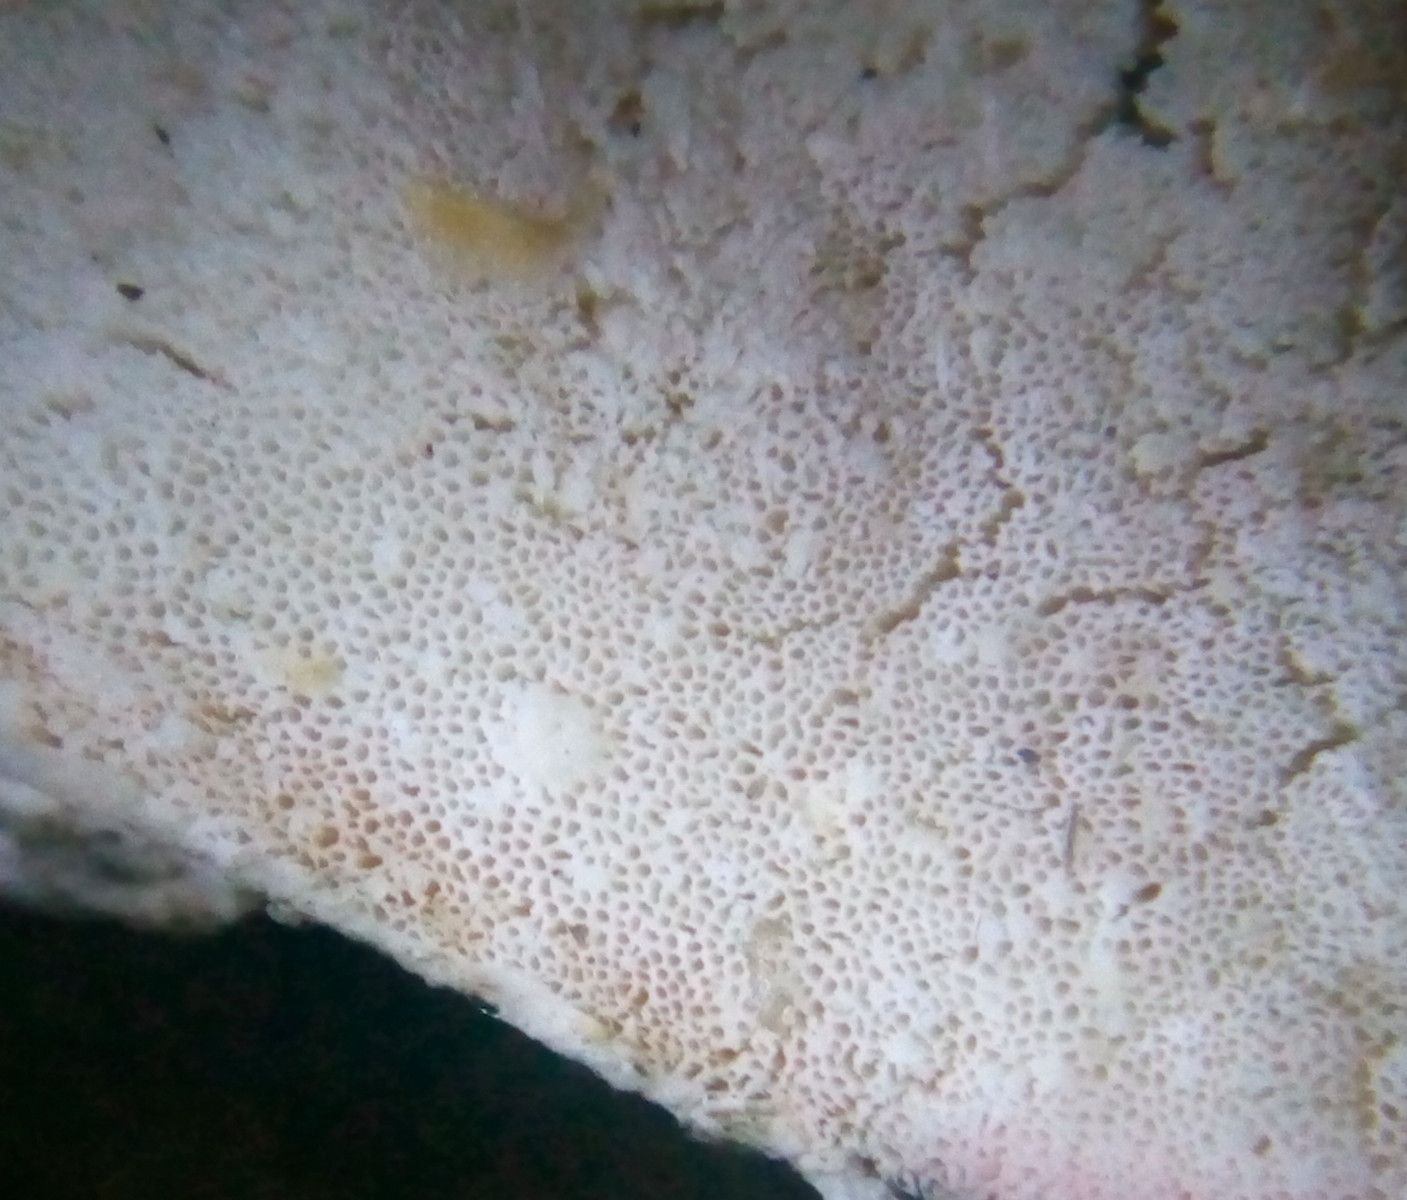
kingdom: Fungi
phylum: Basidiomycota
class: Agaricomycetes
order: Polyporales
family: Dacryobolaceae
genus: Postia
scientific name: Postia
